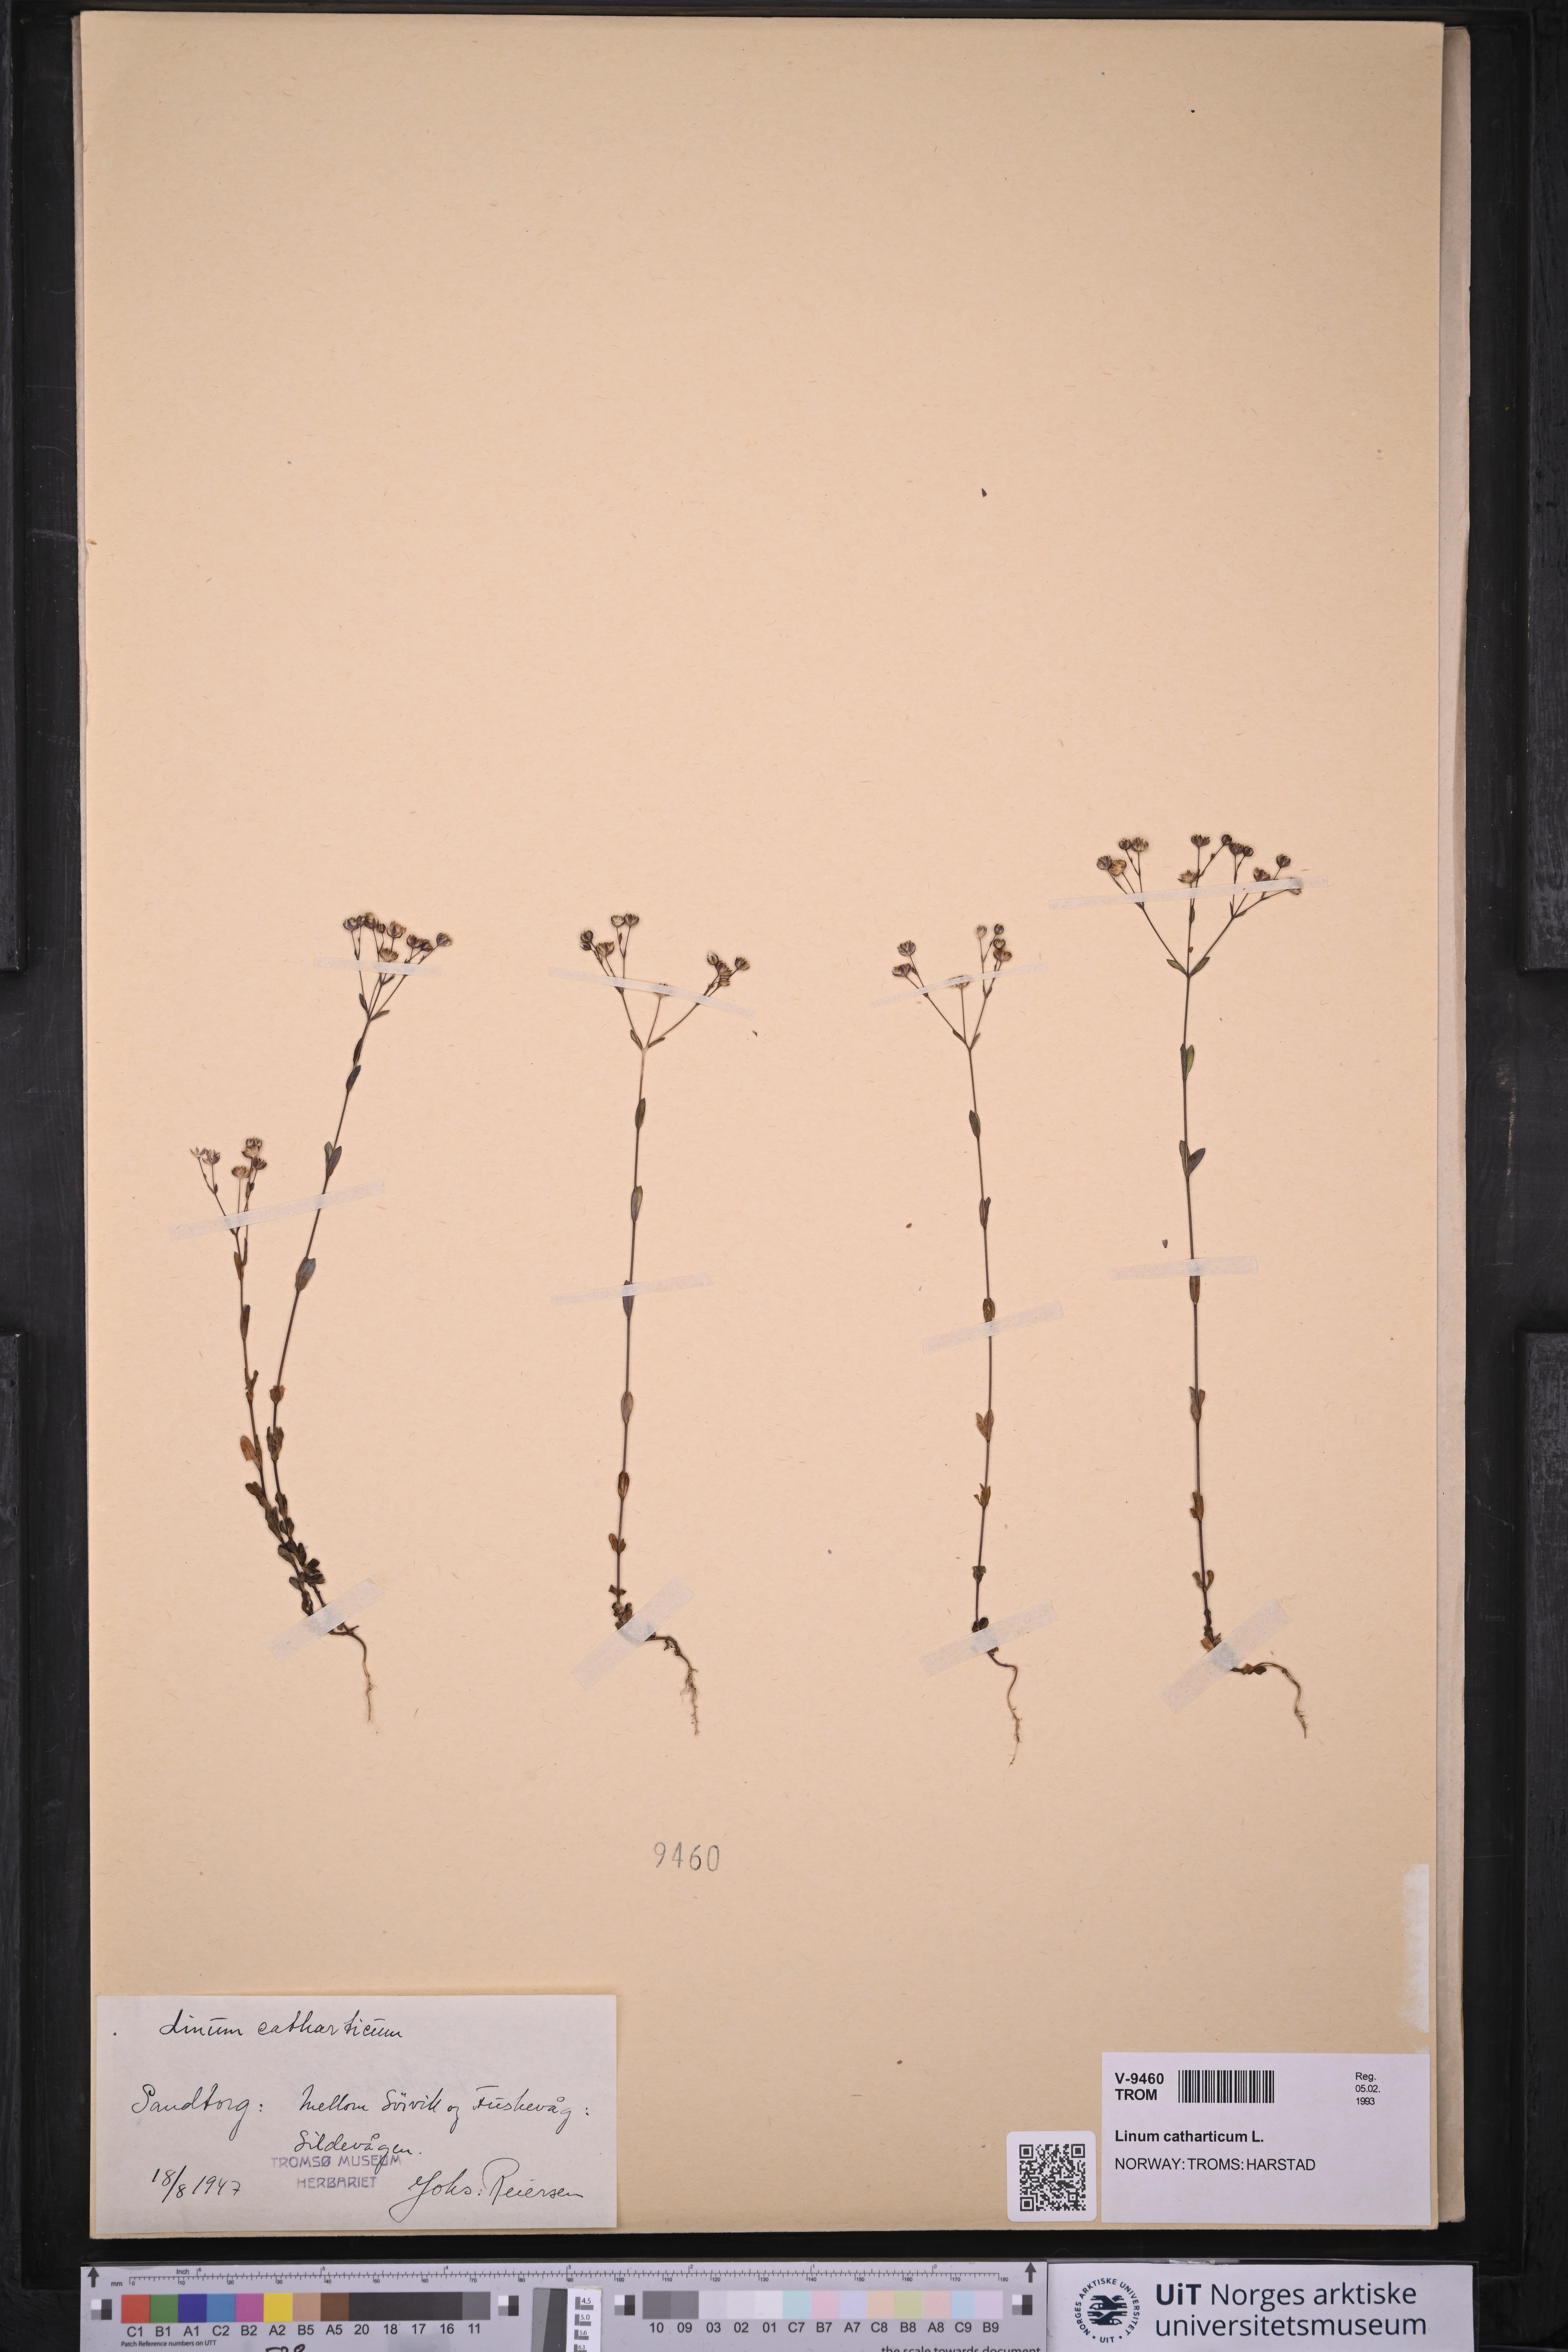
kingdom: Plantae
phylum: Tracheophyta
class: Magnoliopsida
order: Malpighiales
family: Linaceae
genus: Linum
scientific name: Linum catharticum
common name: Fairy flax
